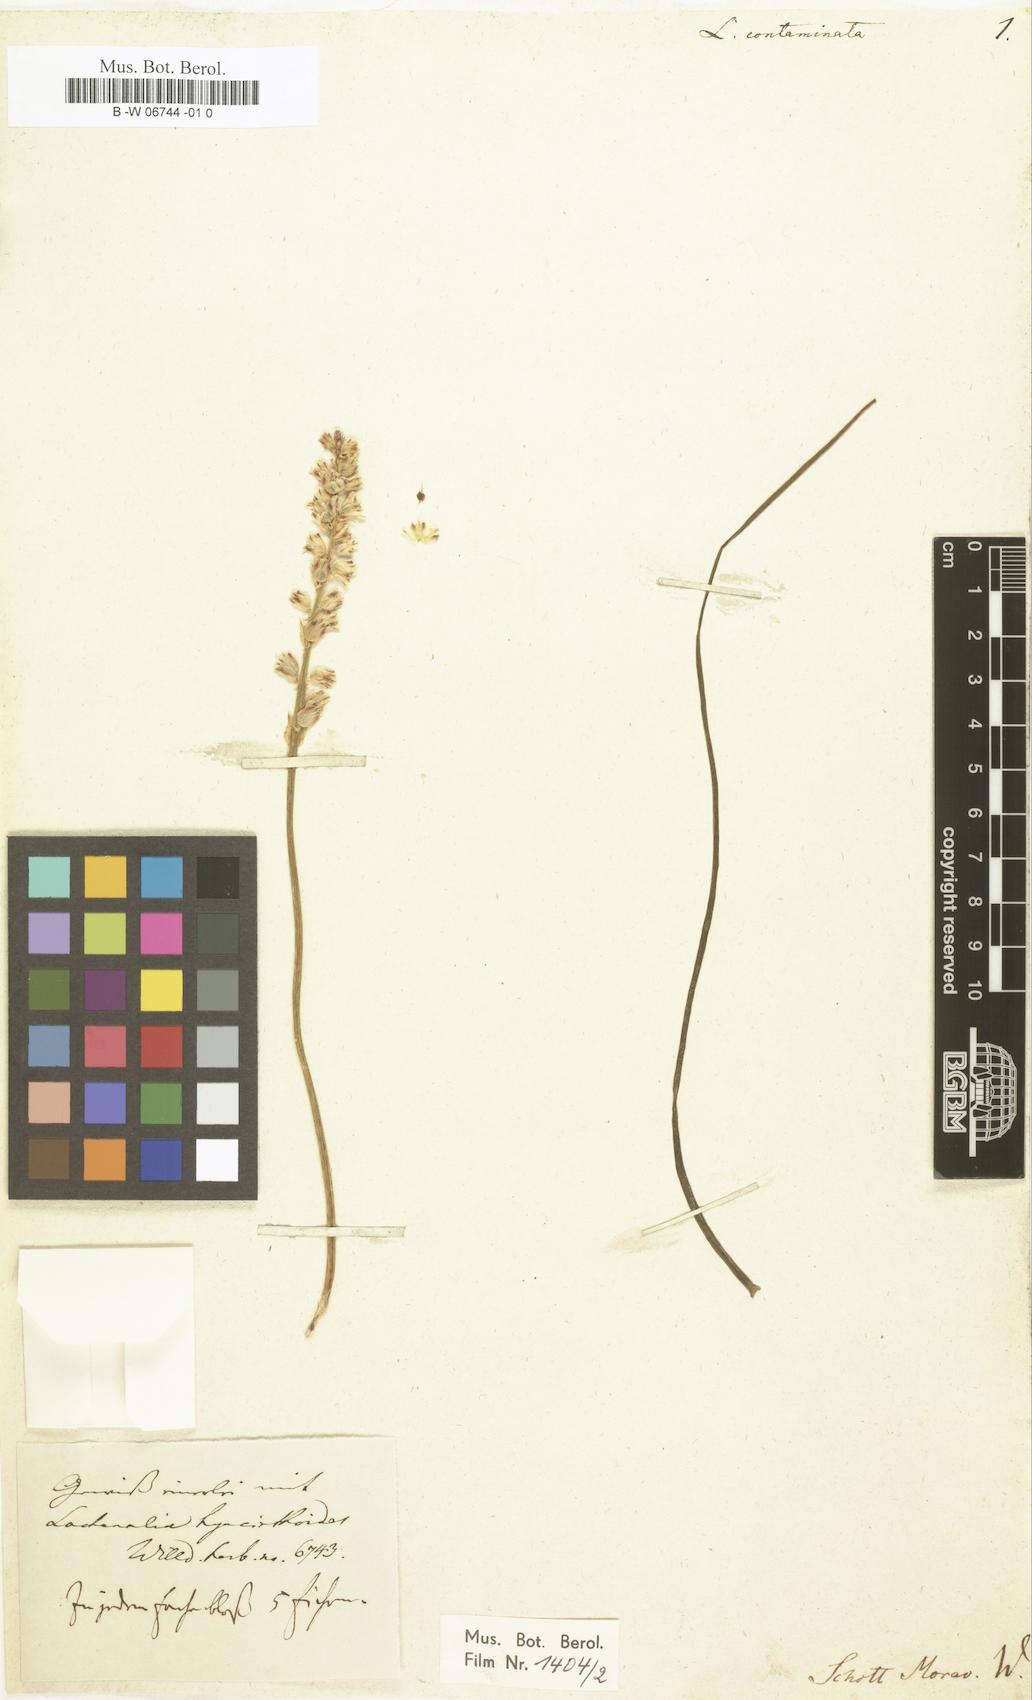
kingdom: Plantae
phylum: Tracheophyta
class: Liliopsida
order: Asparagales
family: Asparagaceae
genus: Lachenalia
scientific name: Lachenalia contaminata
